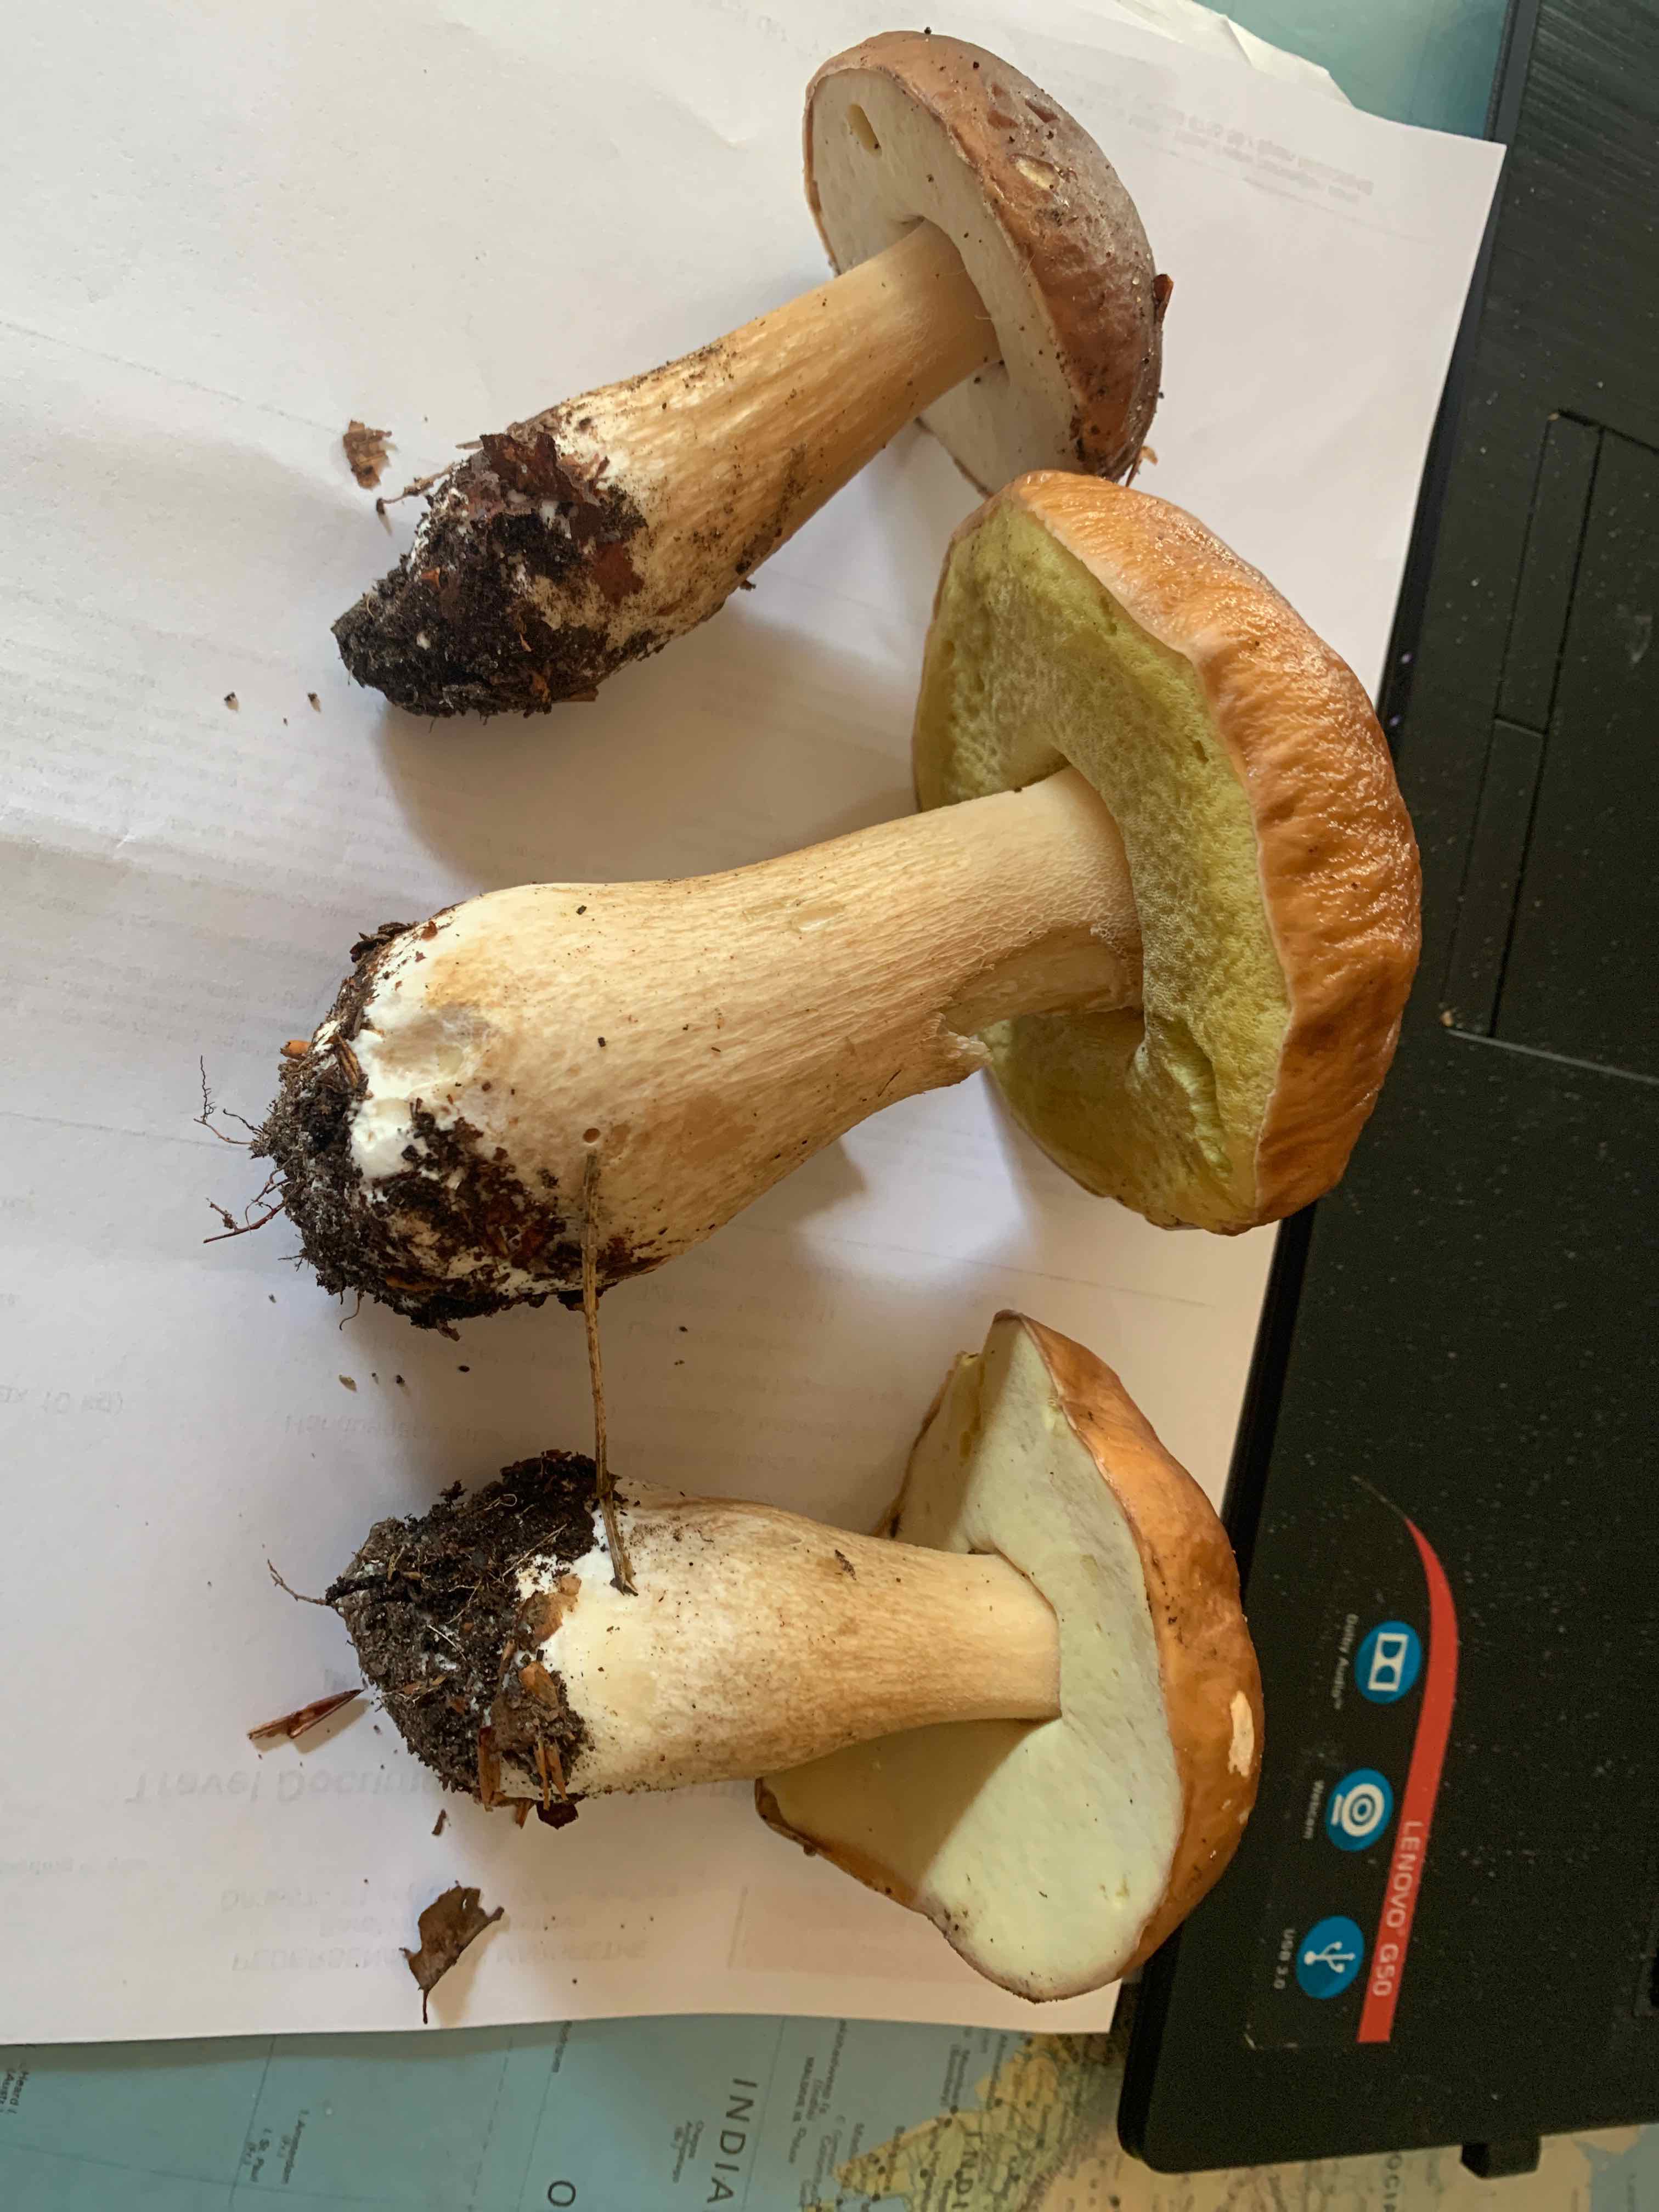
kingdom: Fungi
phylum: Basidiomycota
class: Agaricomycetes
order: Boletales
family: Boletaceae
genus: Boletus
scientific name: Boletus edulis
